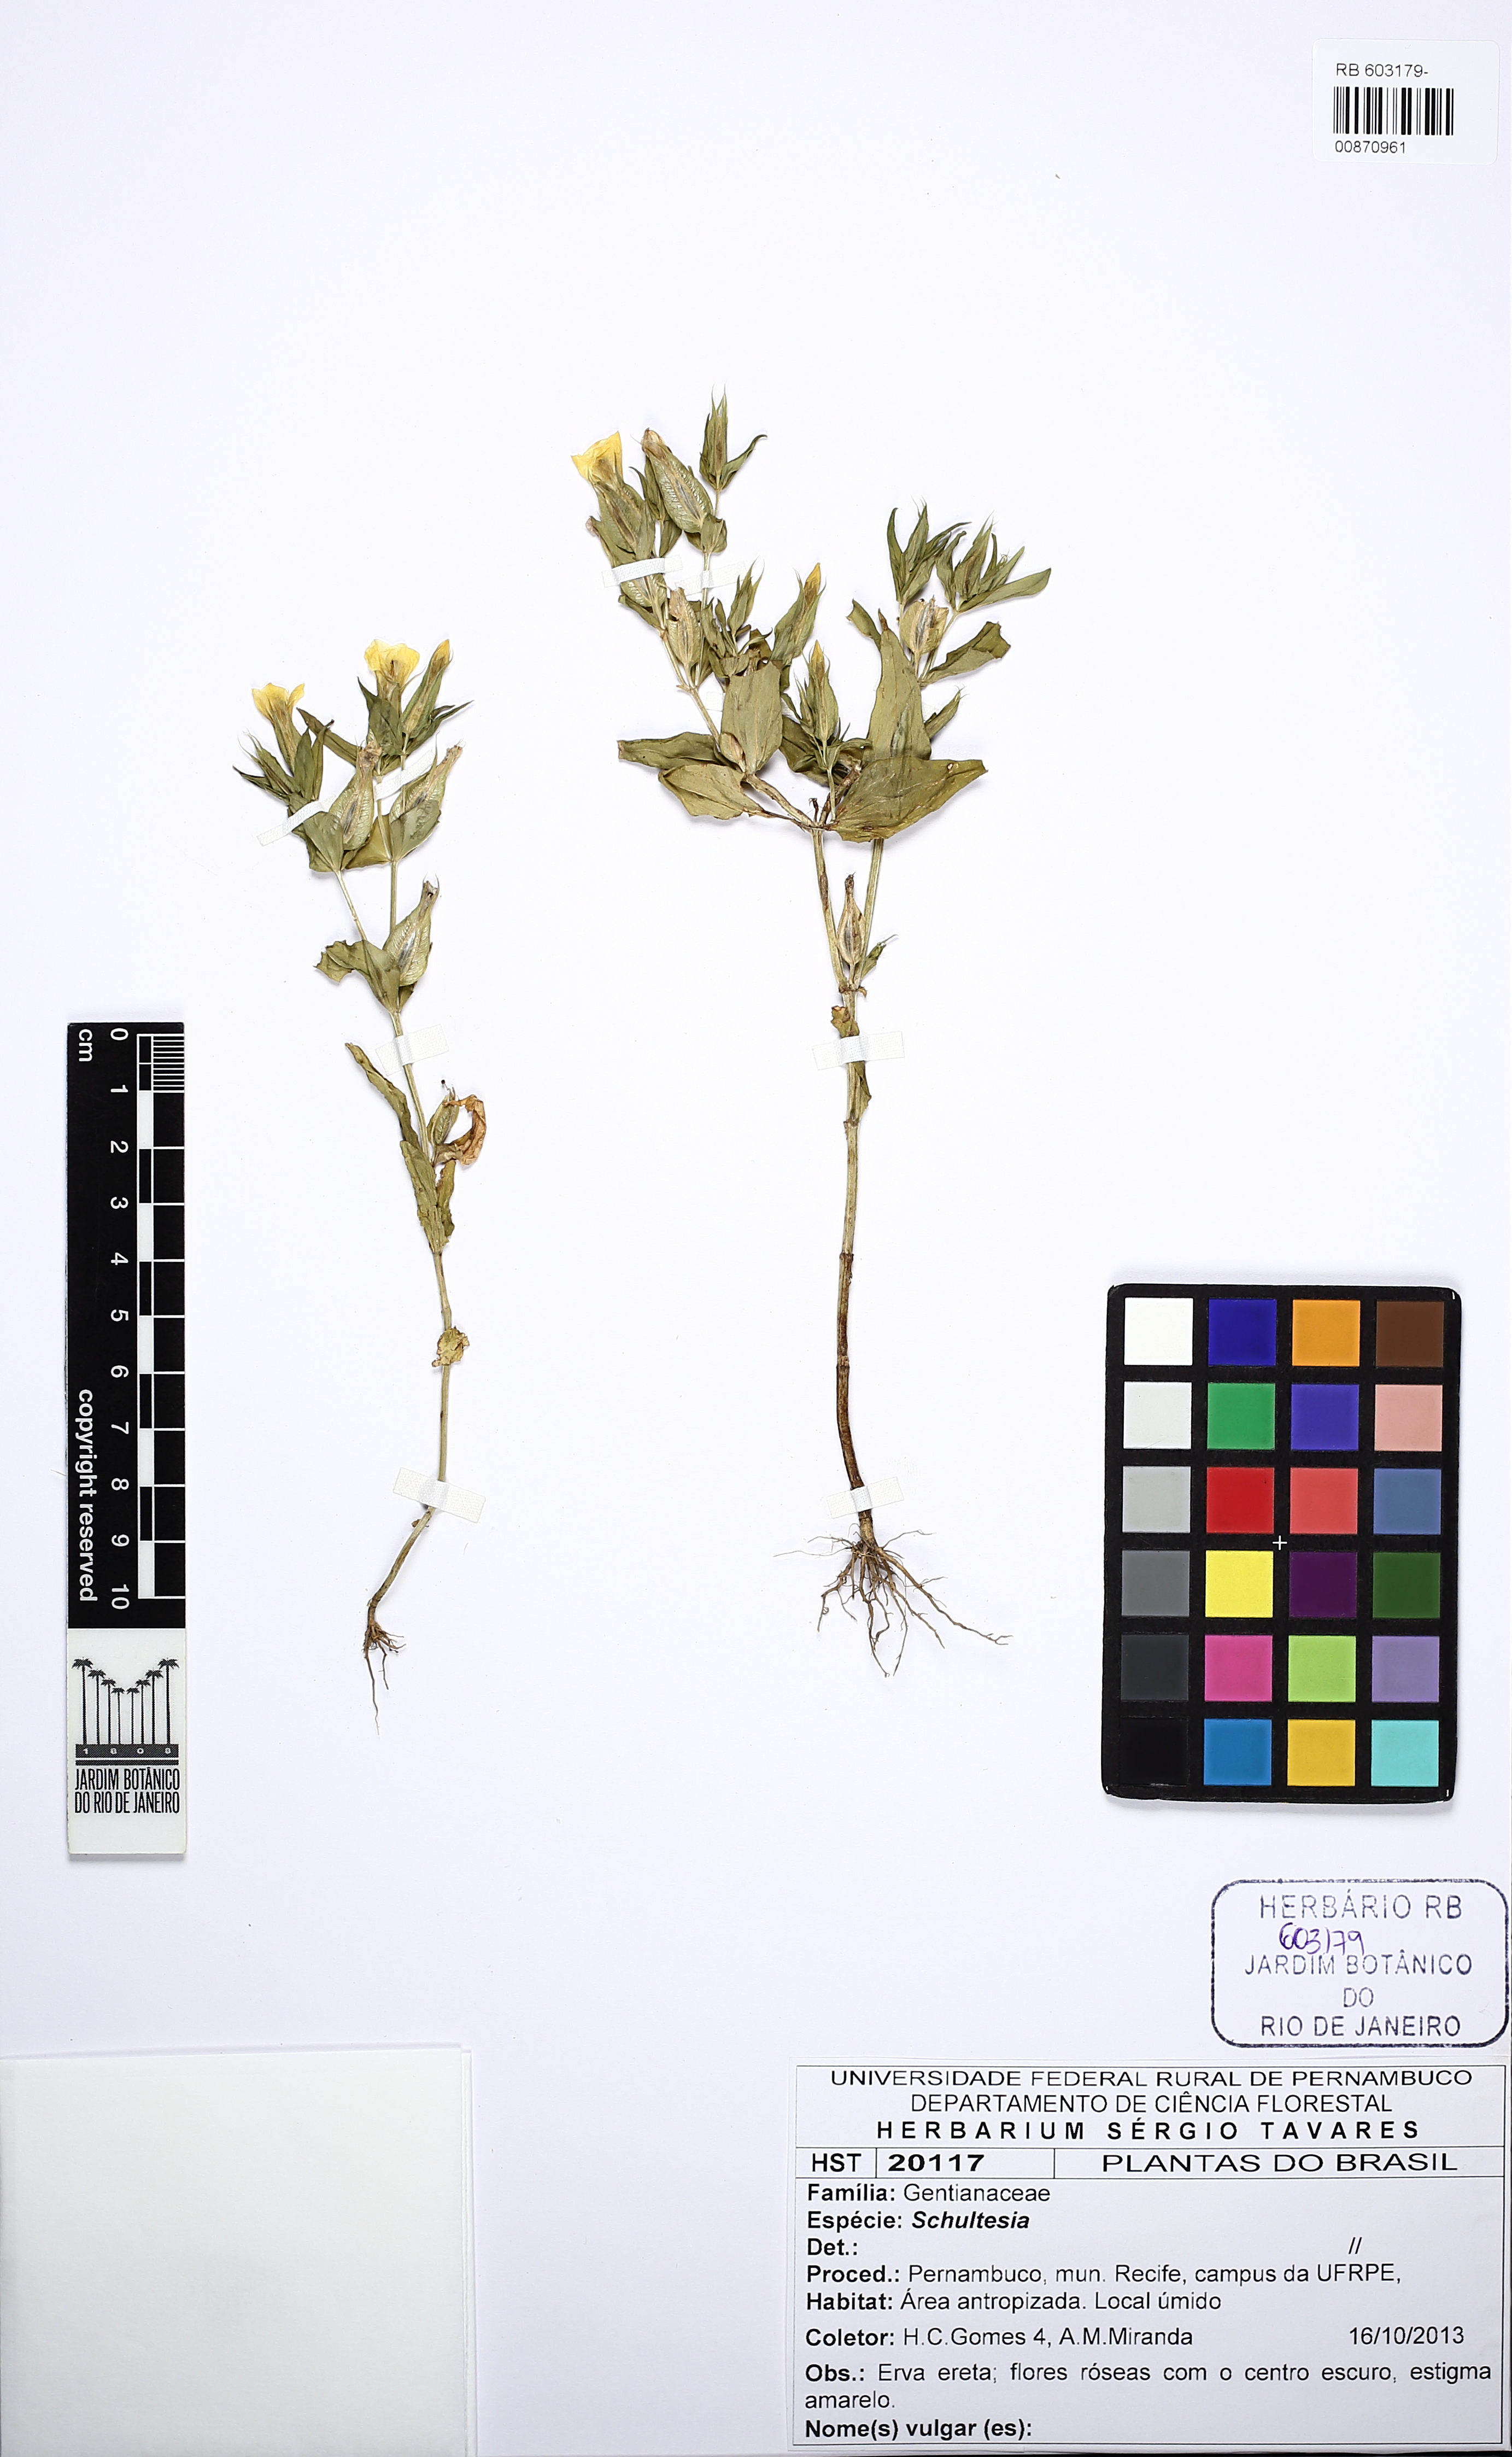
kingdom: Plantae
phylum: Tracheophyta
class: Magnoliopsida
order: Gentianales
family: Gentianaceae
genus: Schultesia
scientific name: Schultesia
